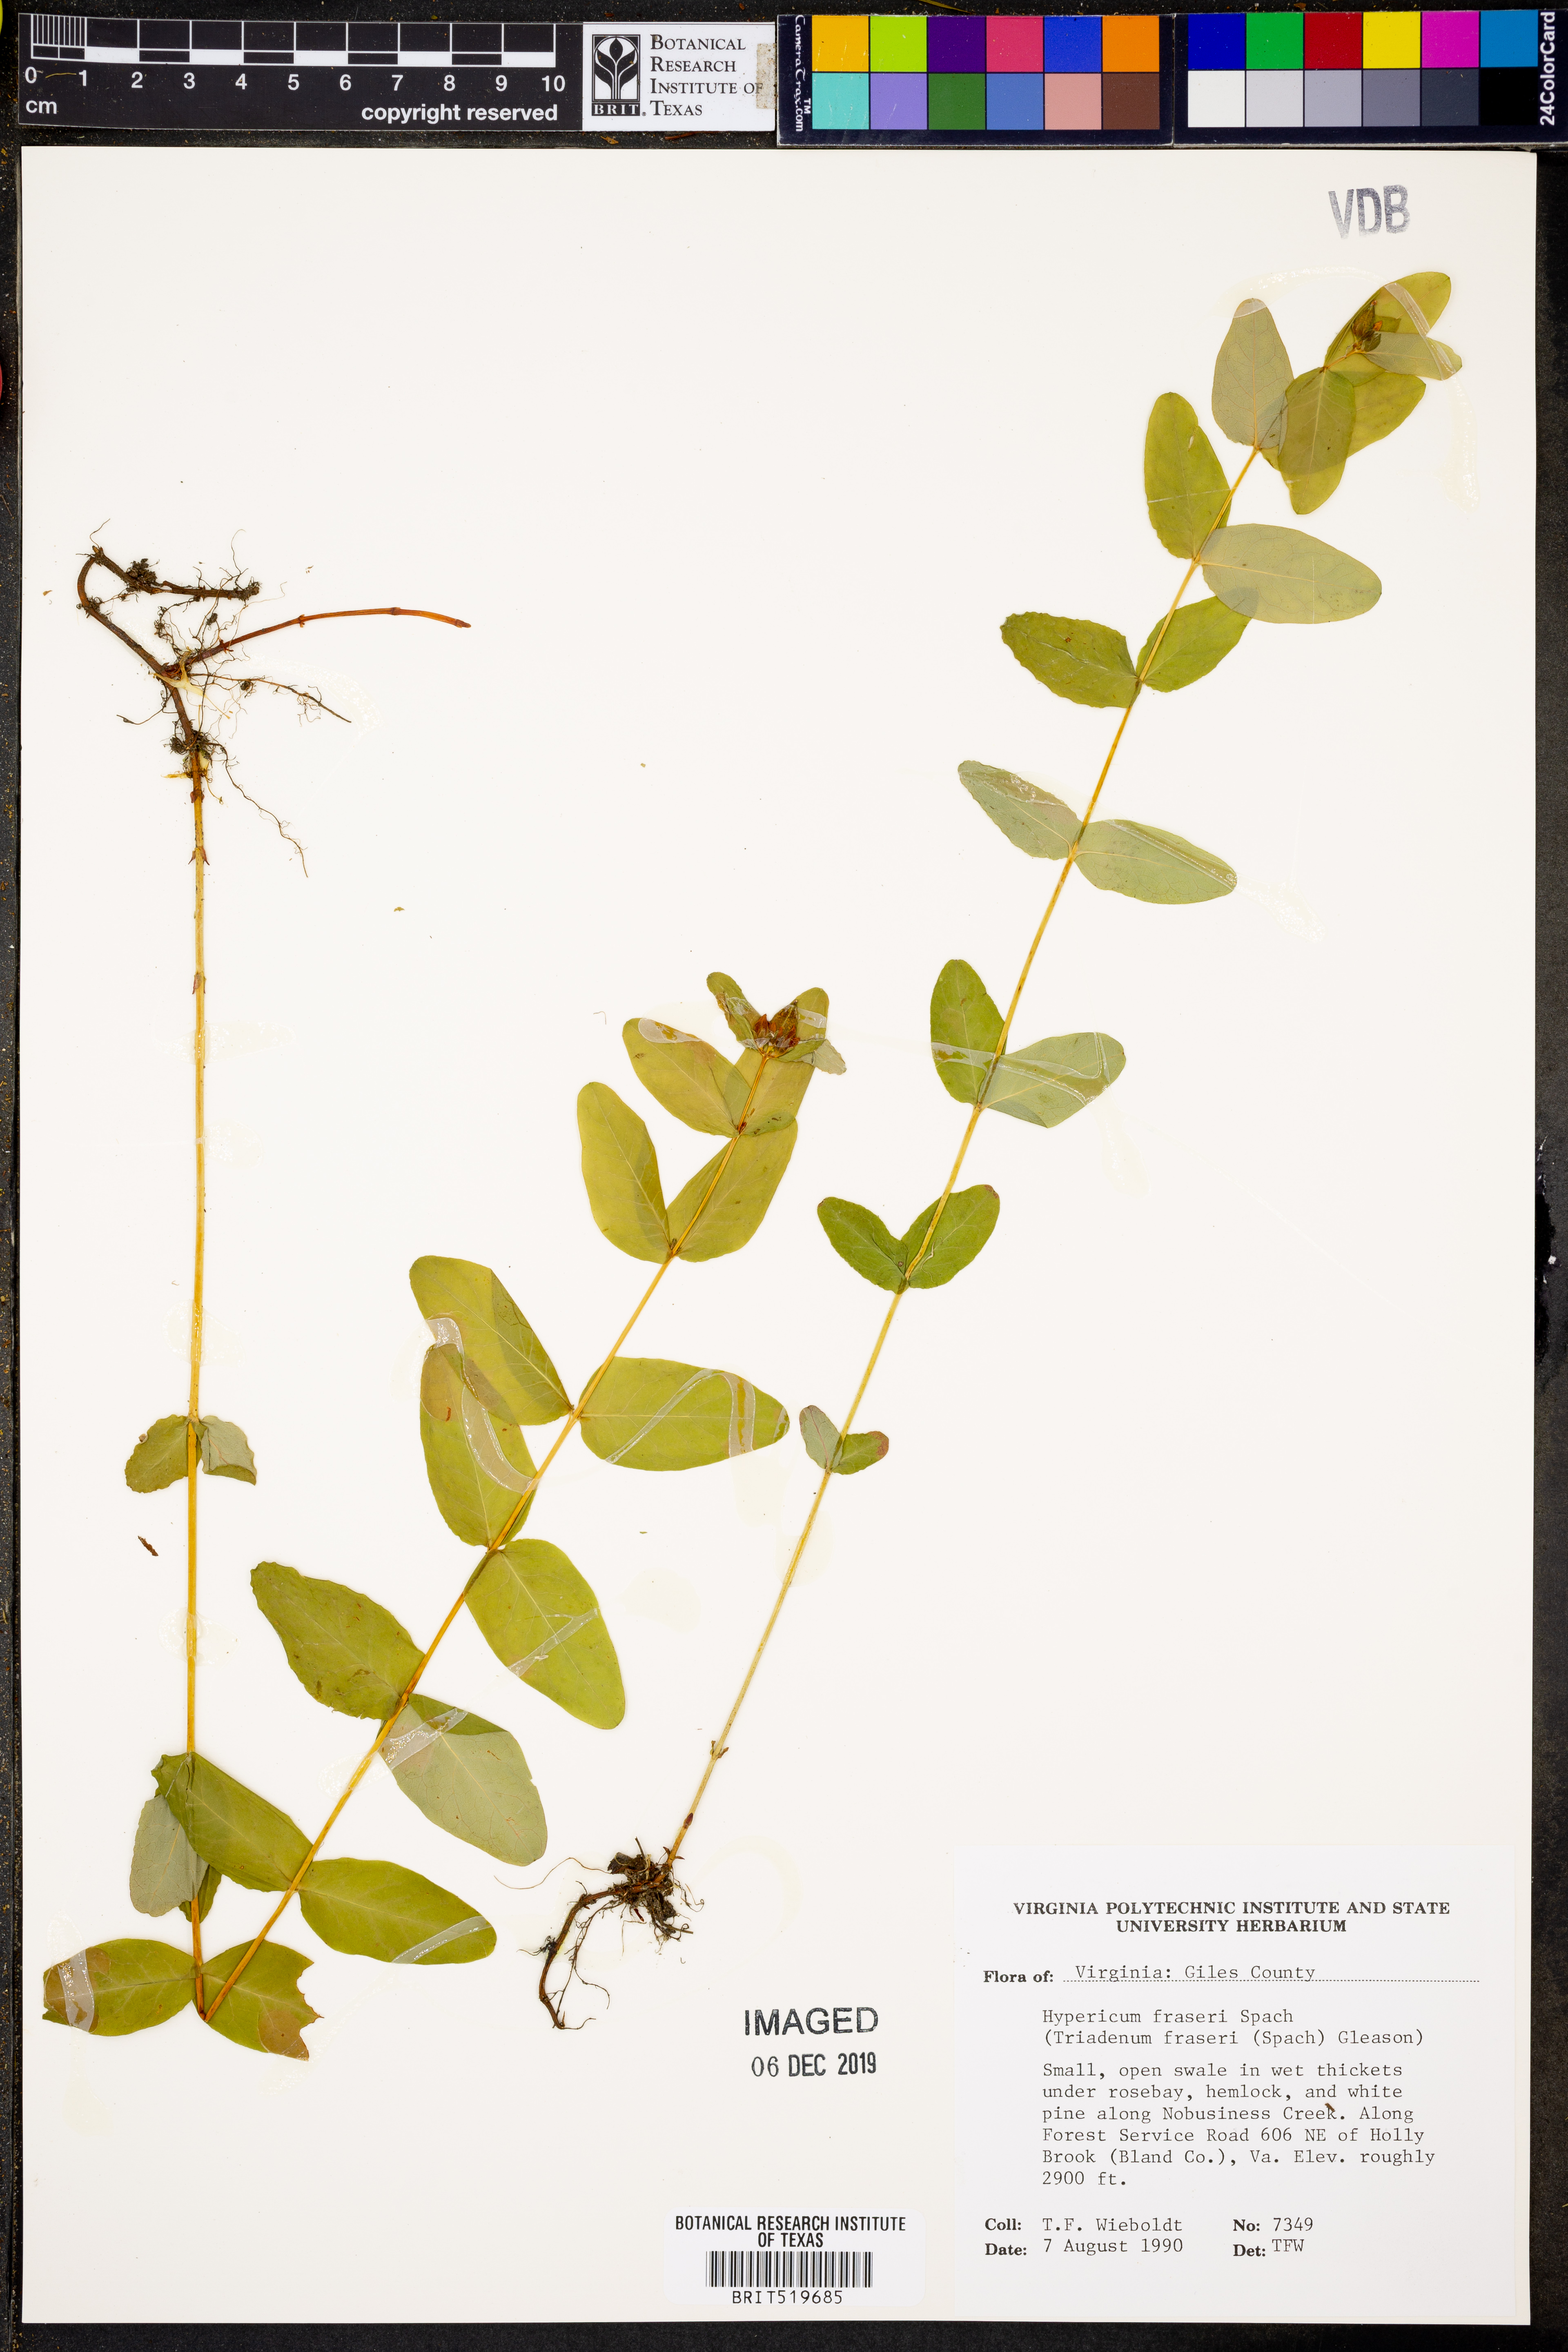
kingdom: Plantae
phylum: Tracheophyta
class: Magnoliopsida
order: Malpighiales
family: Hypericaceae
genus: Triadenum
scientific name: Triadenum fraseri
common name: Fraser's marsh st. johnswort
